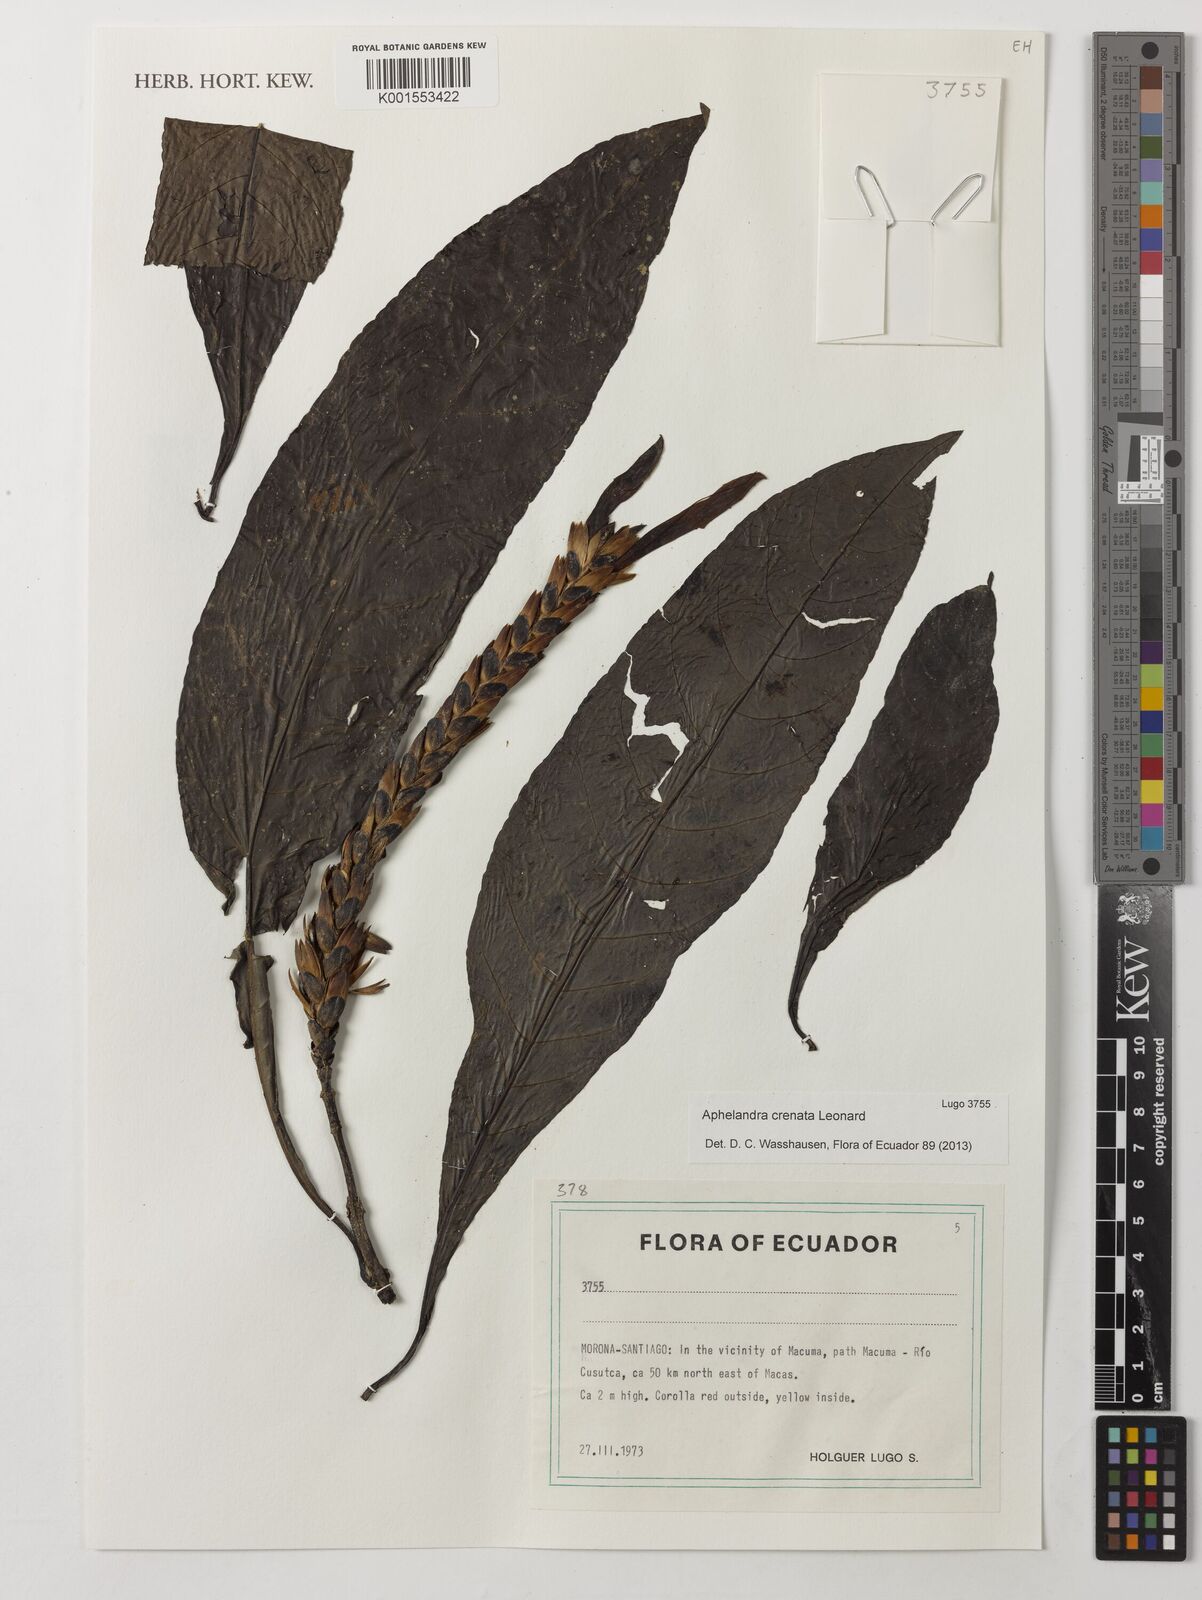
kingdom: Plantae
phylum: Tracheophyta
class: Magnoliopsida
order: Lamiales
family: Acanthaceae
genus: Aphelandra
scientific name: Aphelandra crenata
